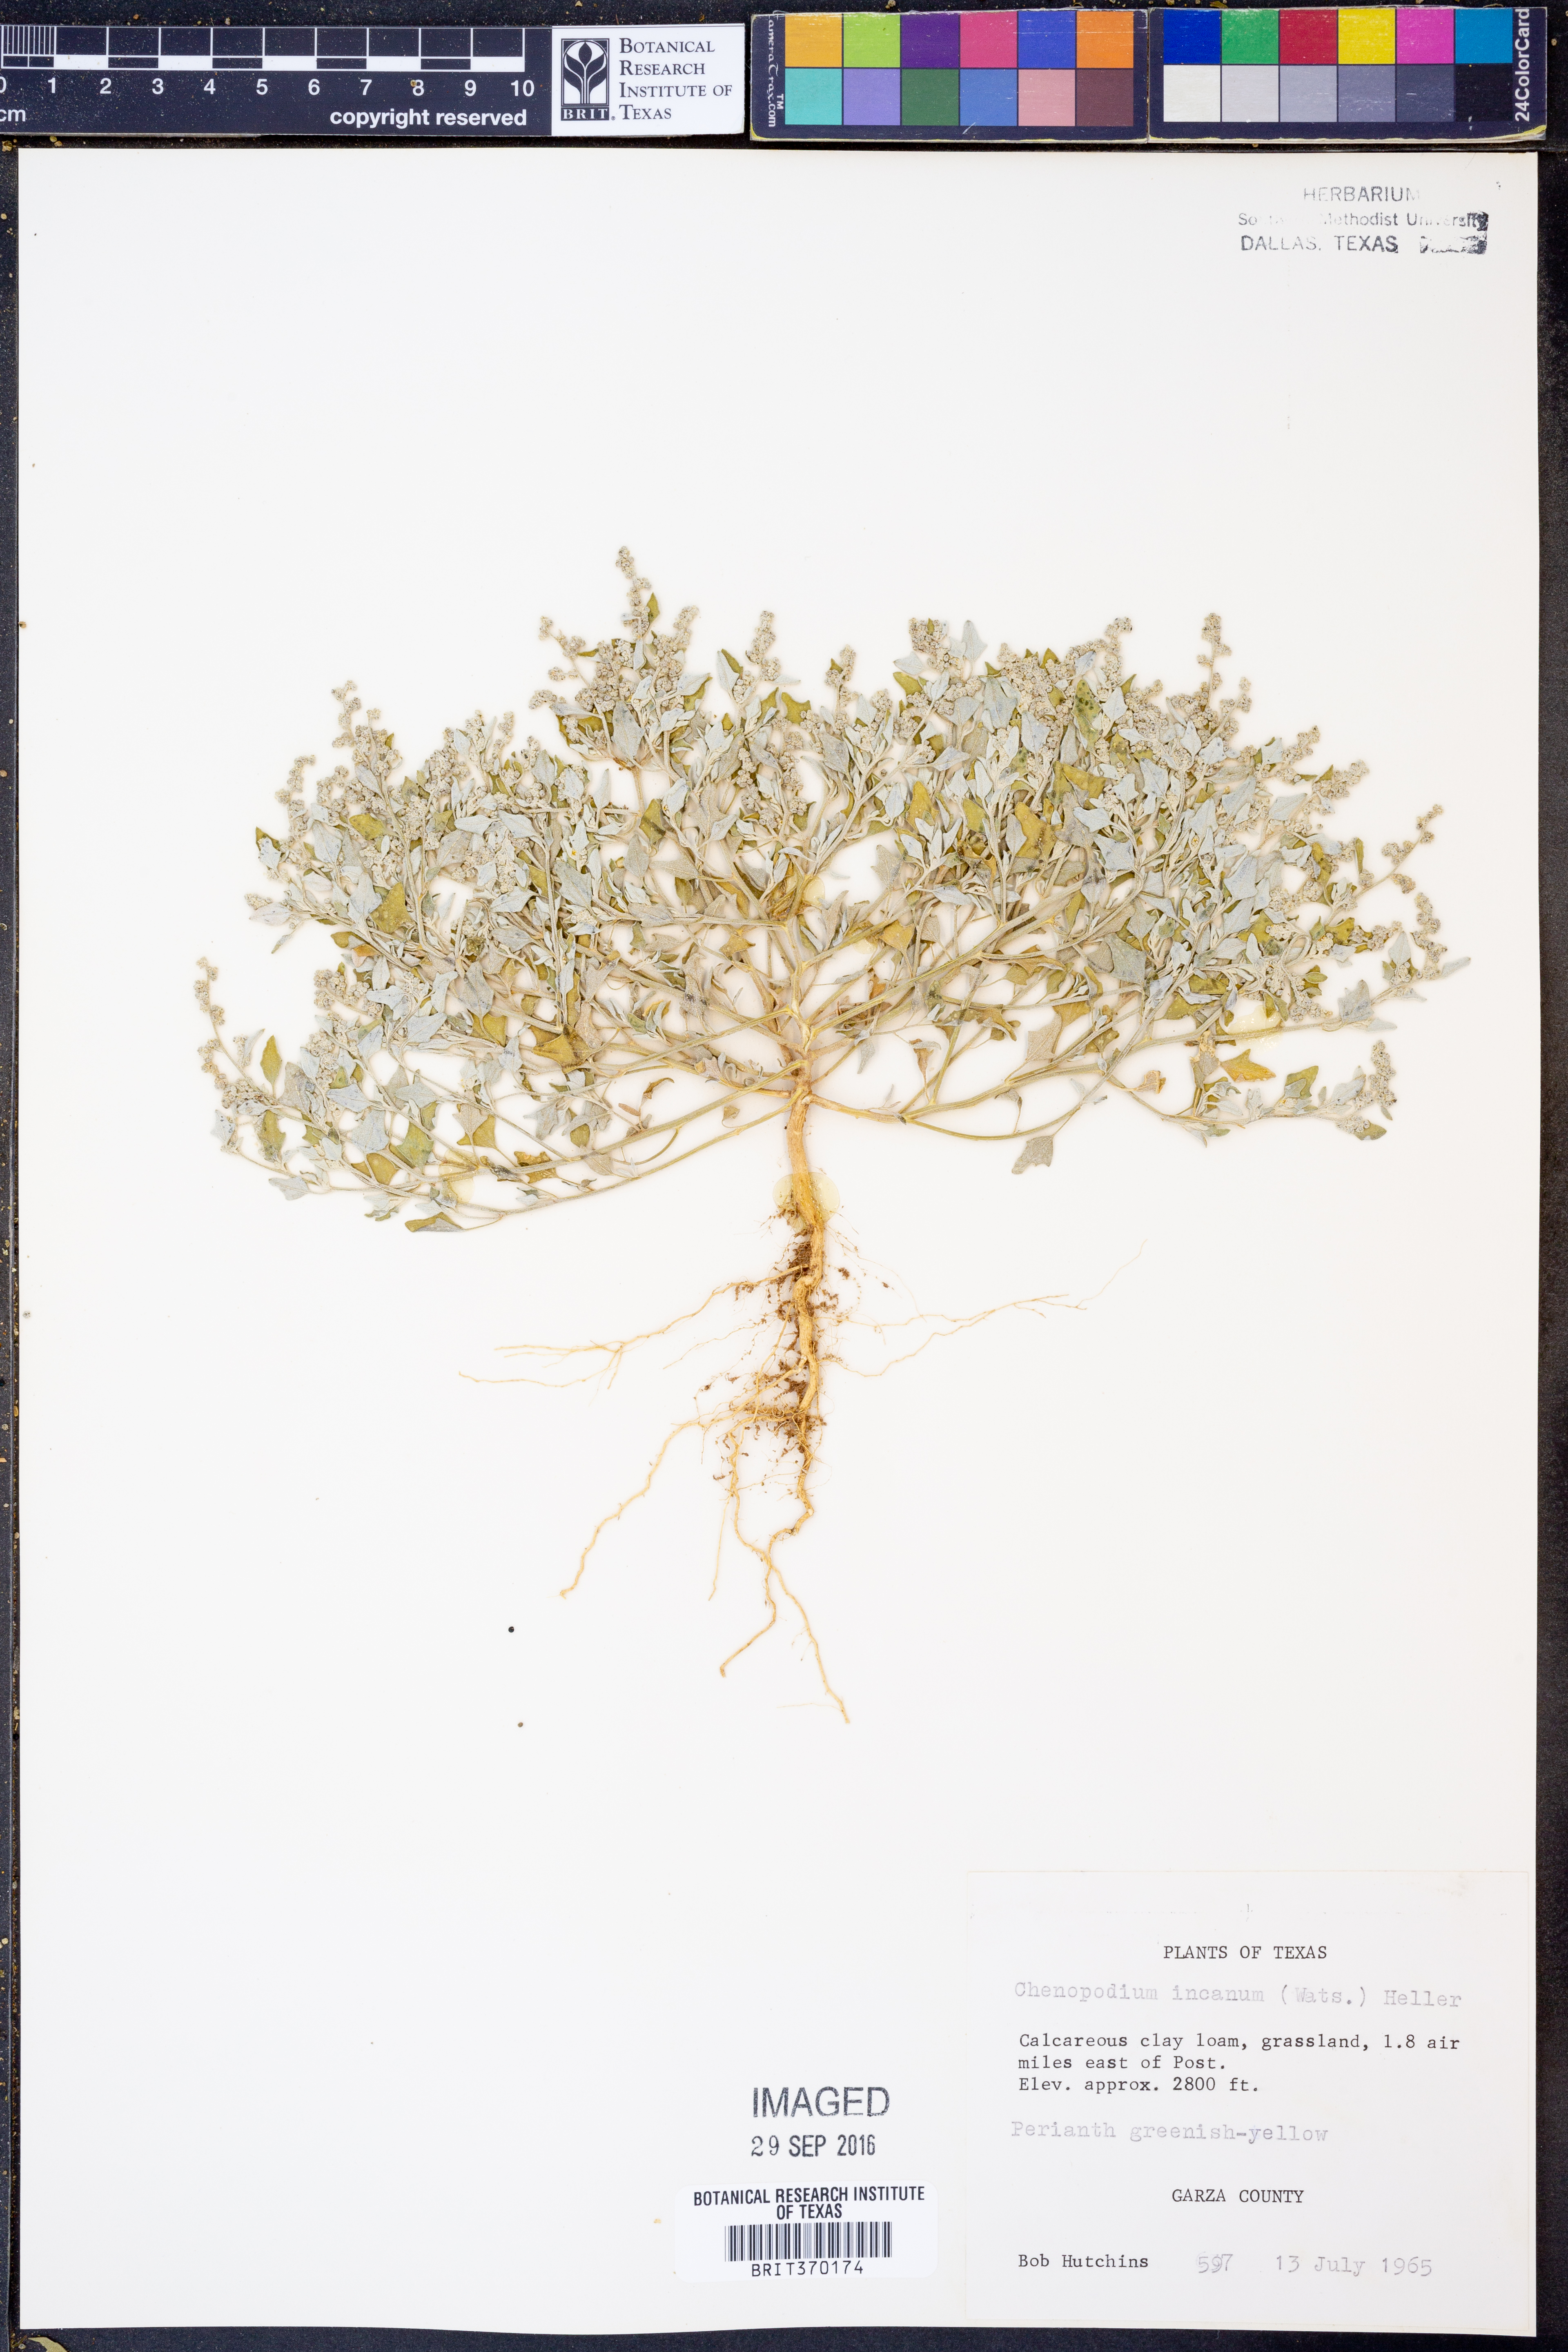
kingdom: Plantae
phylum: Tracheophyta
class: Magnoliopsida
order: Caryophyllales
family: Amaranthaceae
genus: Chenopodium
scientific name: Chenopodium incanum
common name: Hoary goosefoot
